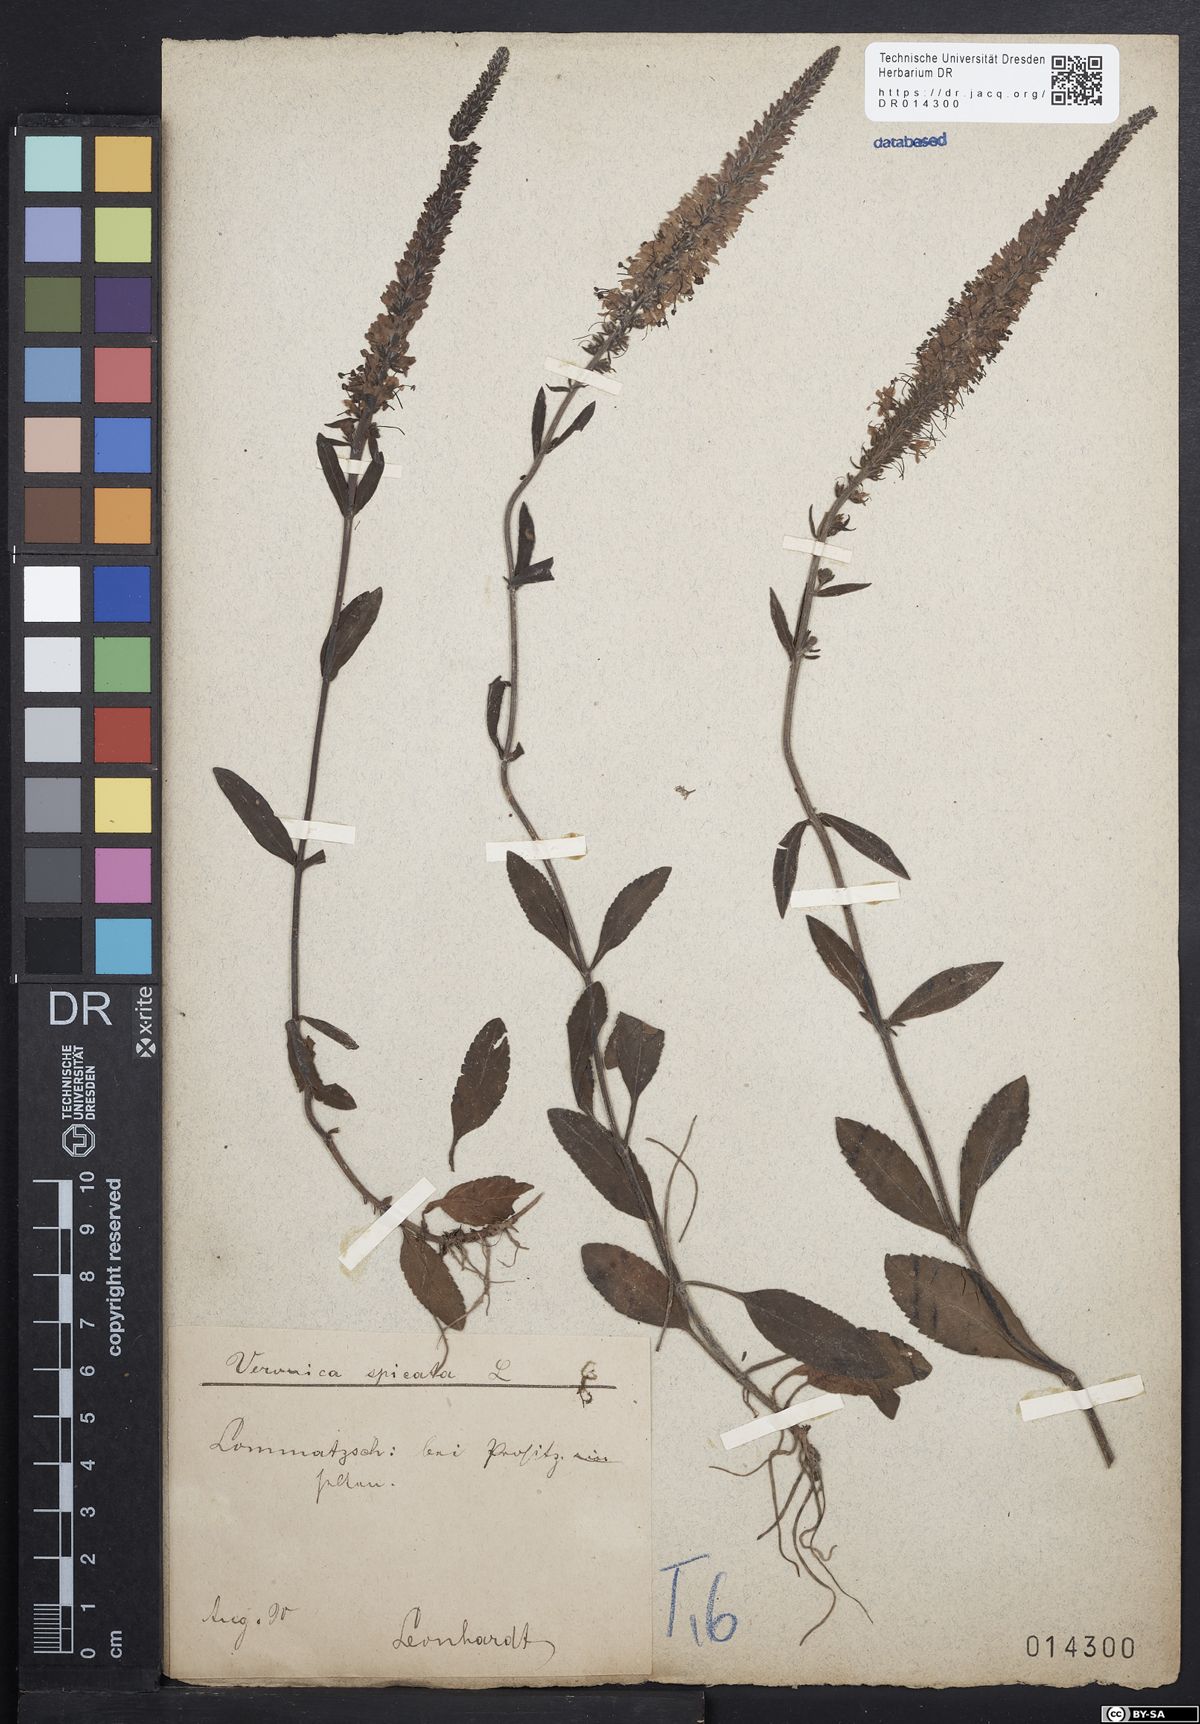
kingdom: Plantae
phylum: Tracheophyta
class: Magnoliopsida
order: Lamiales
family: Plantaginaceae
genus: Veronica
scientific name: Veronica spicata
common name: Spiked speedwell
